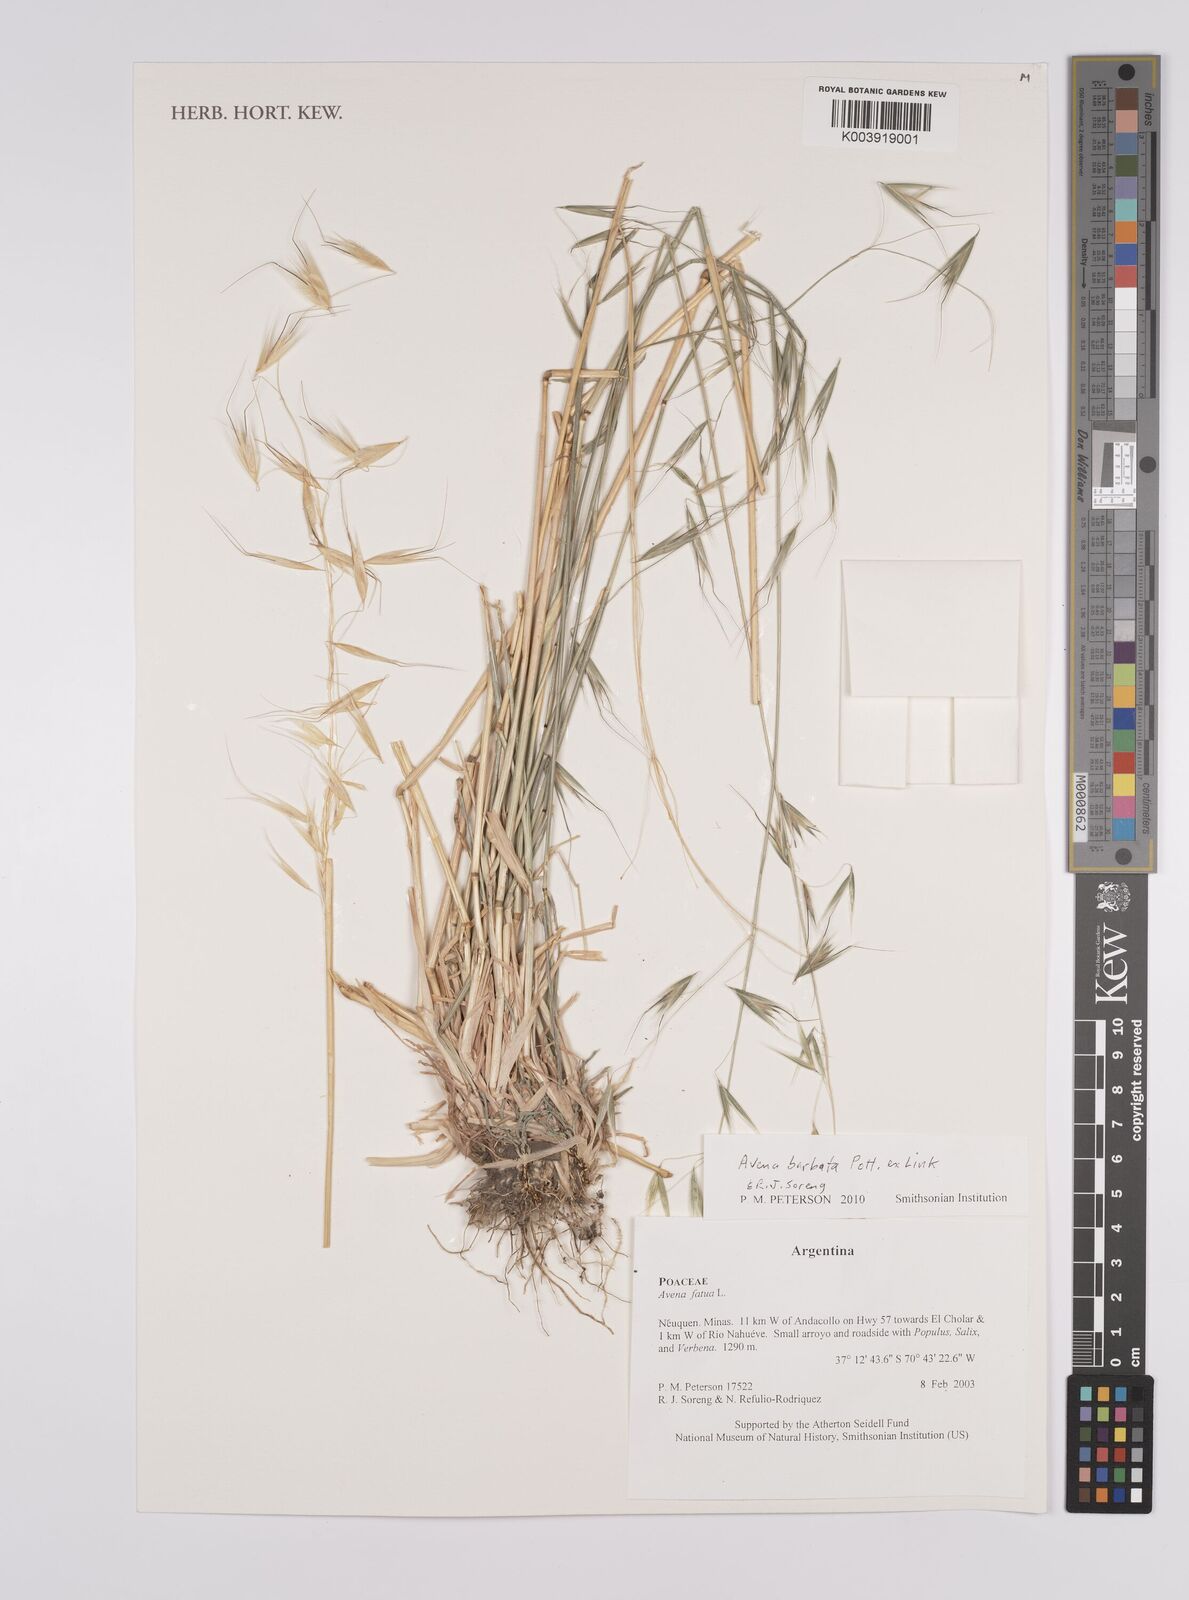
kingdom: Plantae
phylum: Tracheophyta
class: Liliopsida
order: Poales
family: Poaceae
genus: Avena
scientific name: Avena
